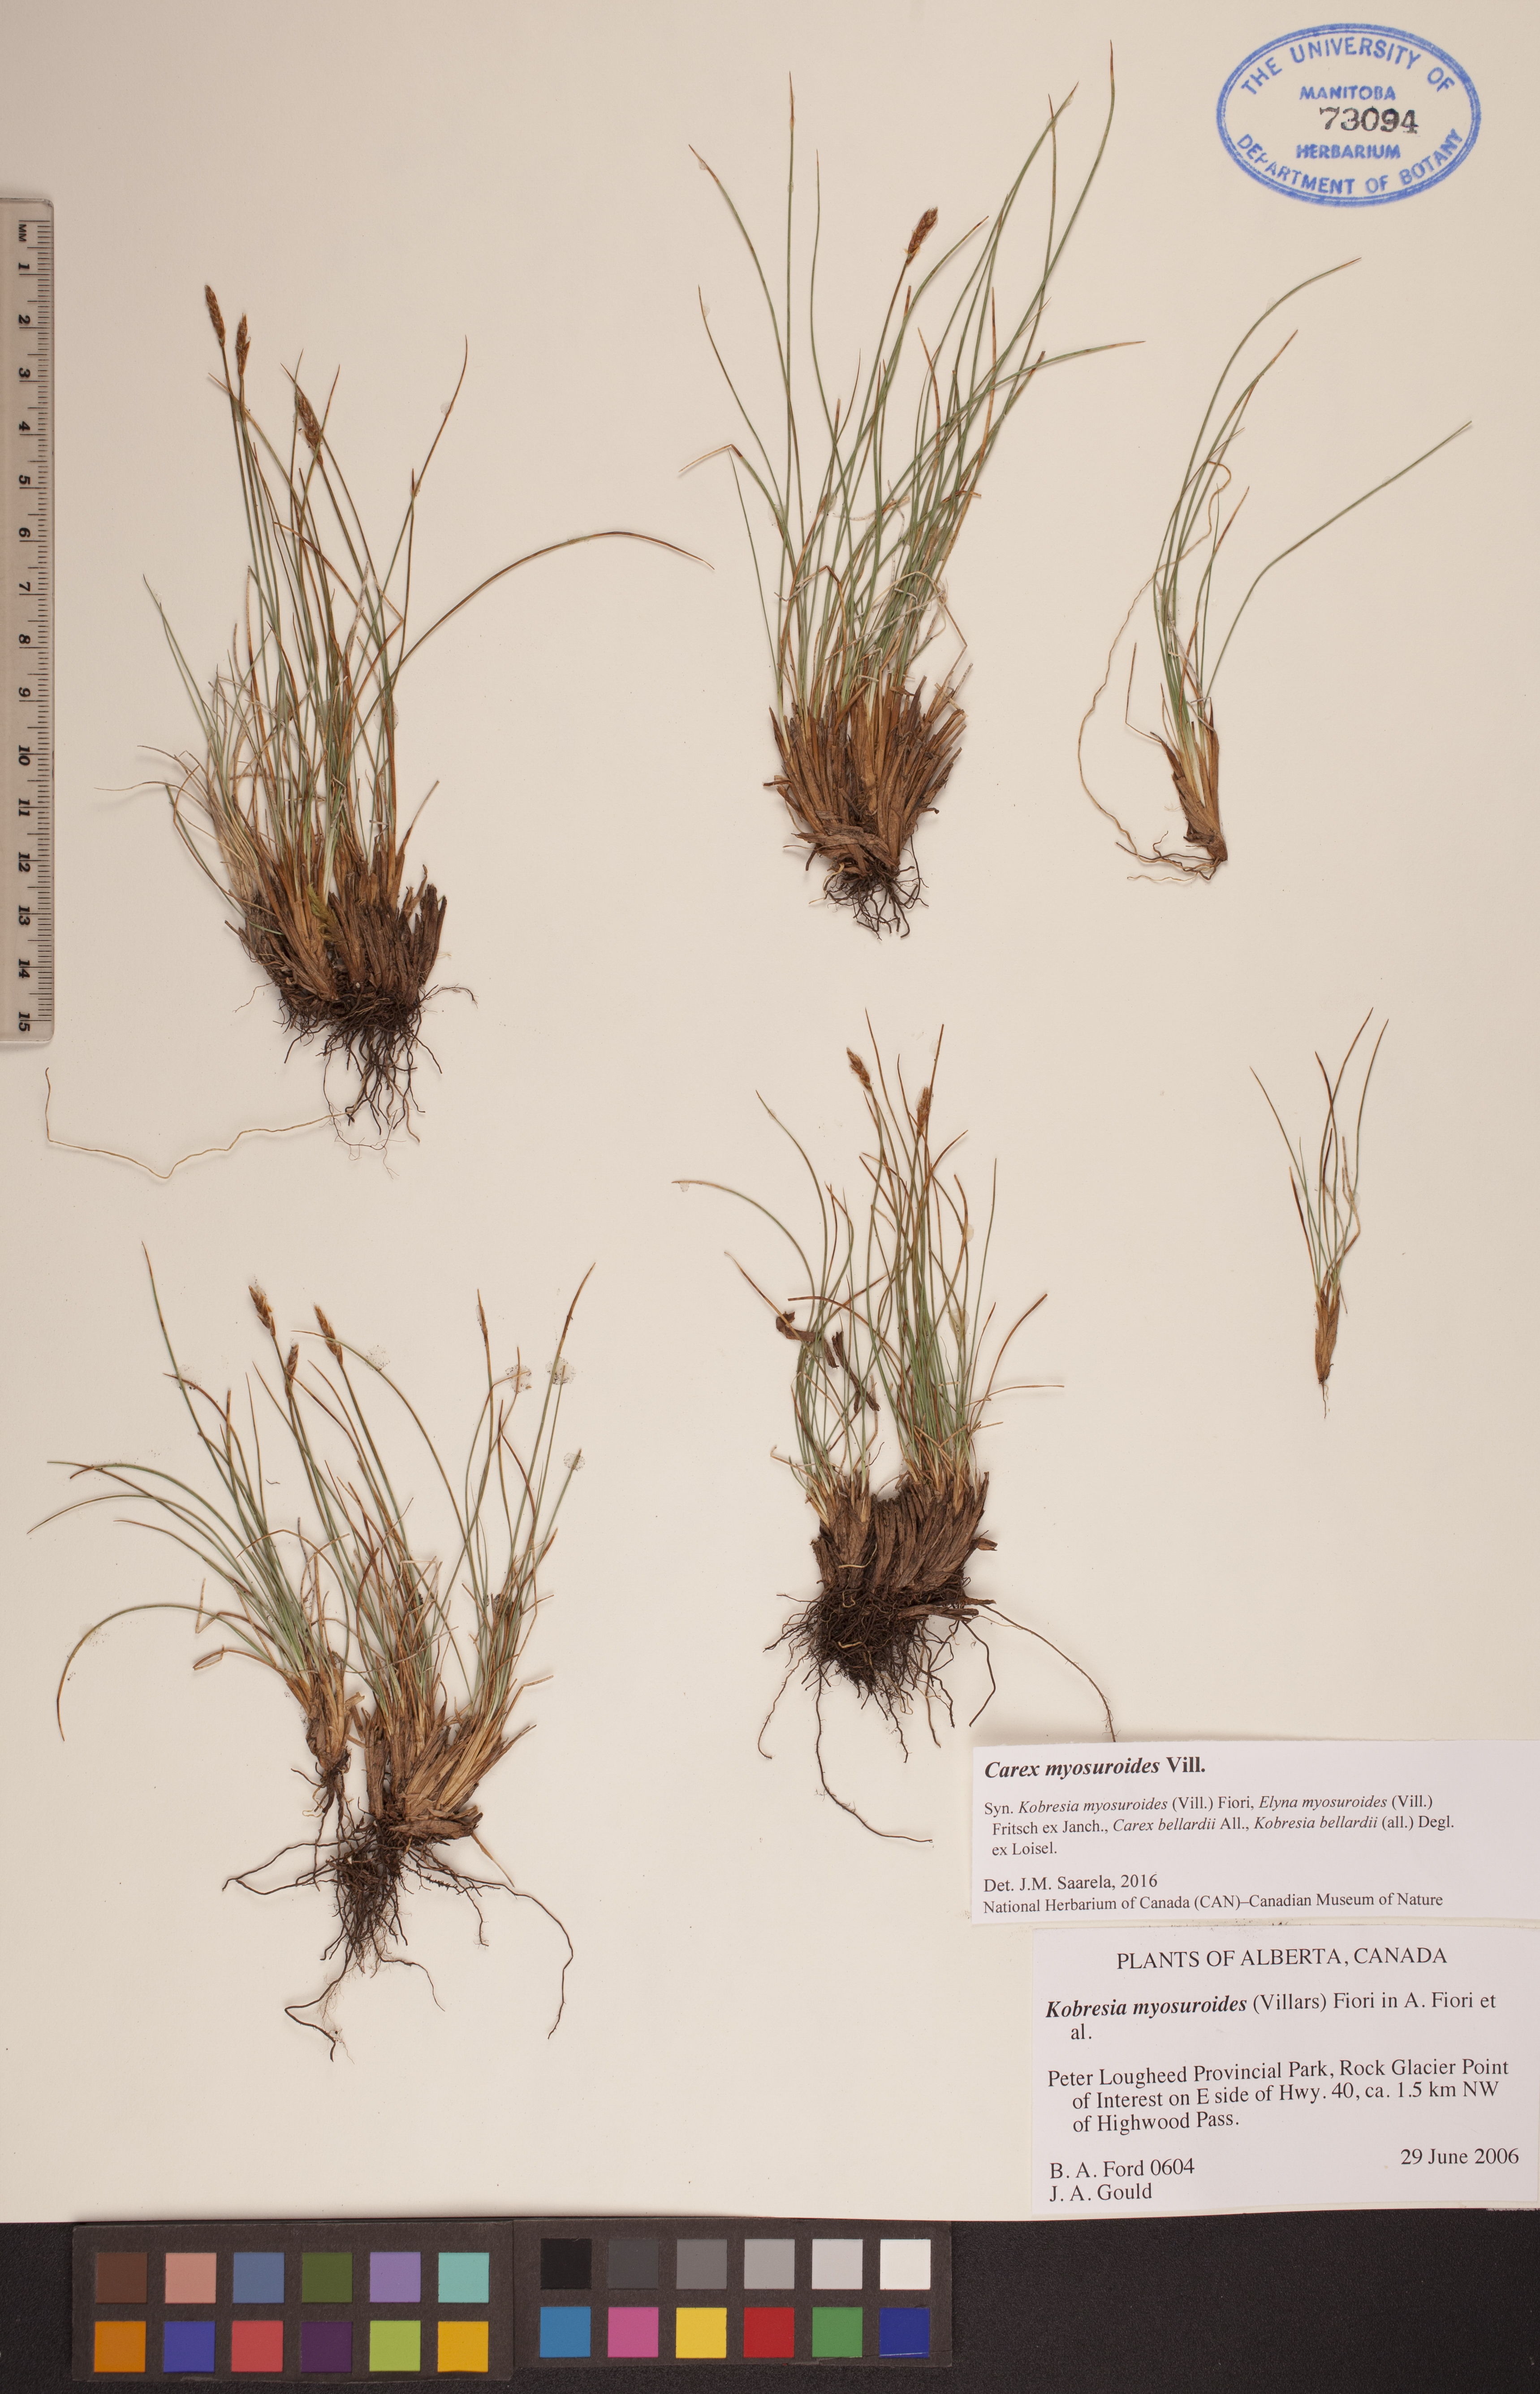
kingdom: Plantae
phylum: Tracheophyta
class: Liliopsida
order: Poales
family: Cyperaceae
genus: Carex
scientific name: Carex myosuroides
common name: Bellard's bog sedge
